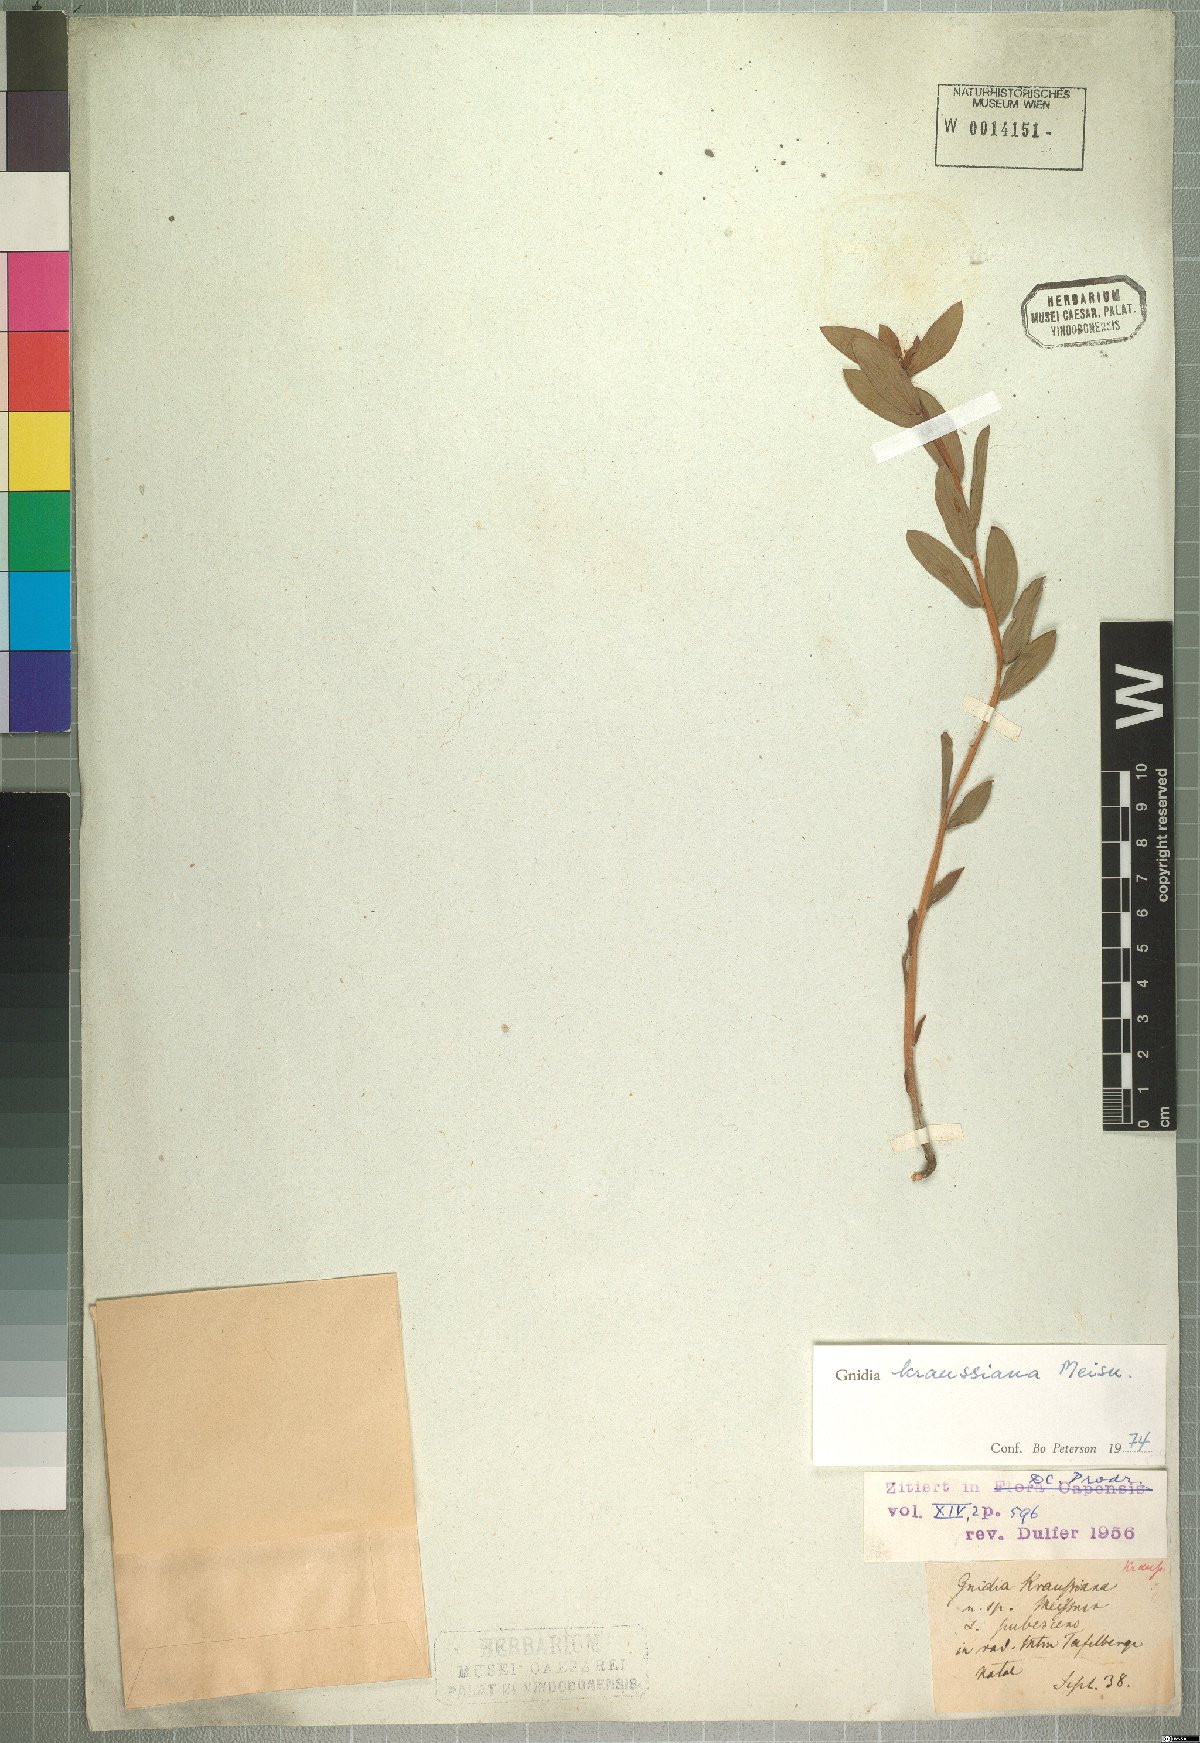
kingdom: Plantae
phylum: Tracheophyta
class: Magnoliopsida
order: Malvales
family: Thymelaeaceae
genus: Gnidia
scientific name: Gnidia kraussiana
